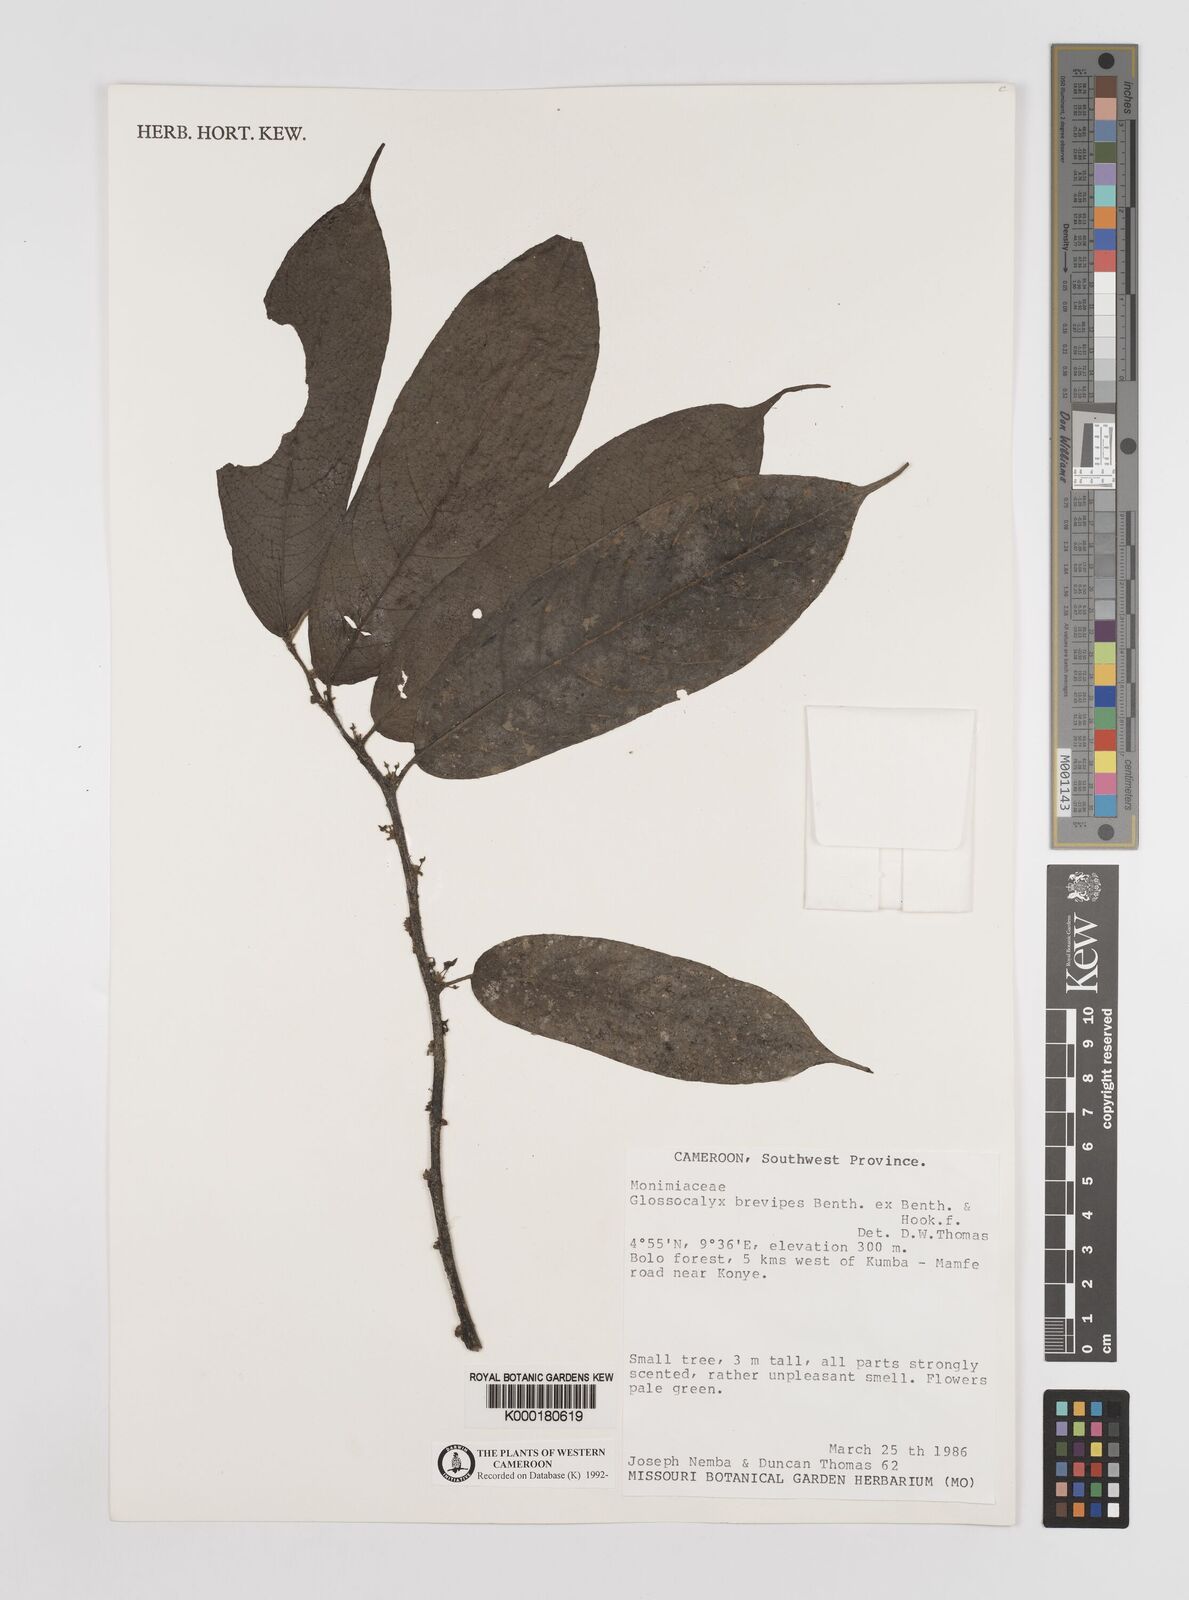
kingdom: Plantae
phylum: Tracheophyta
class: Magnoliopsida
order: Laurales
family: Siparunaceae
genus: Glossocalyx
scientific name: Glossocalyx brevipes
